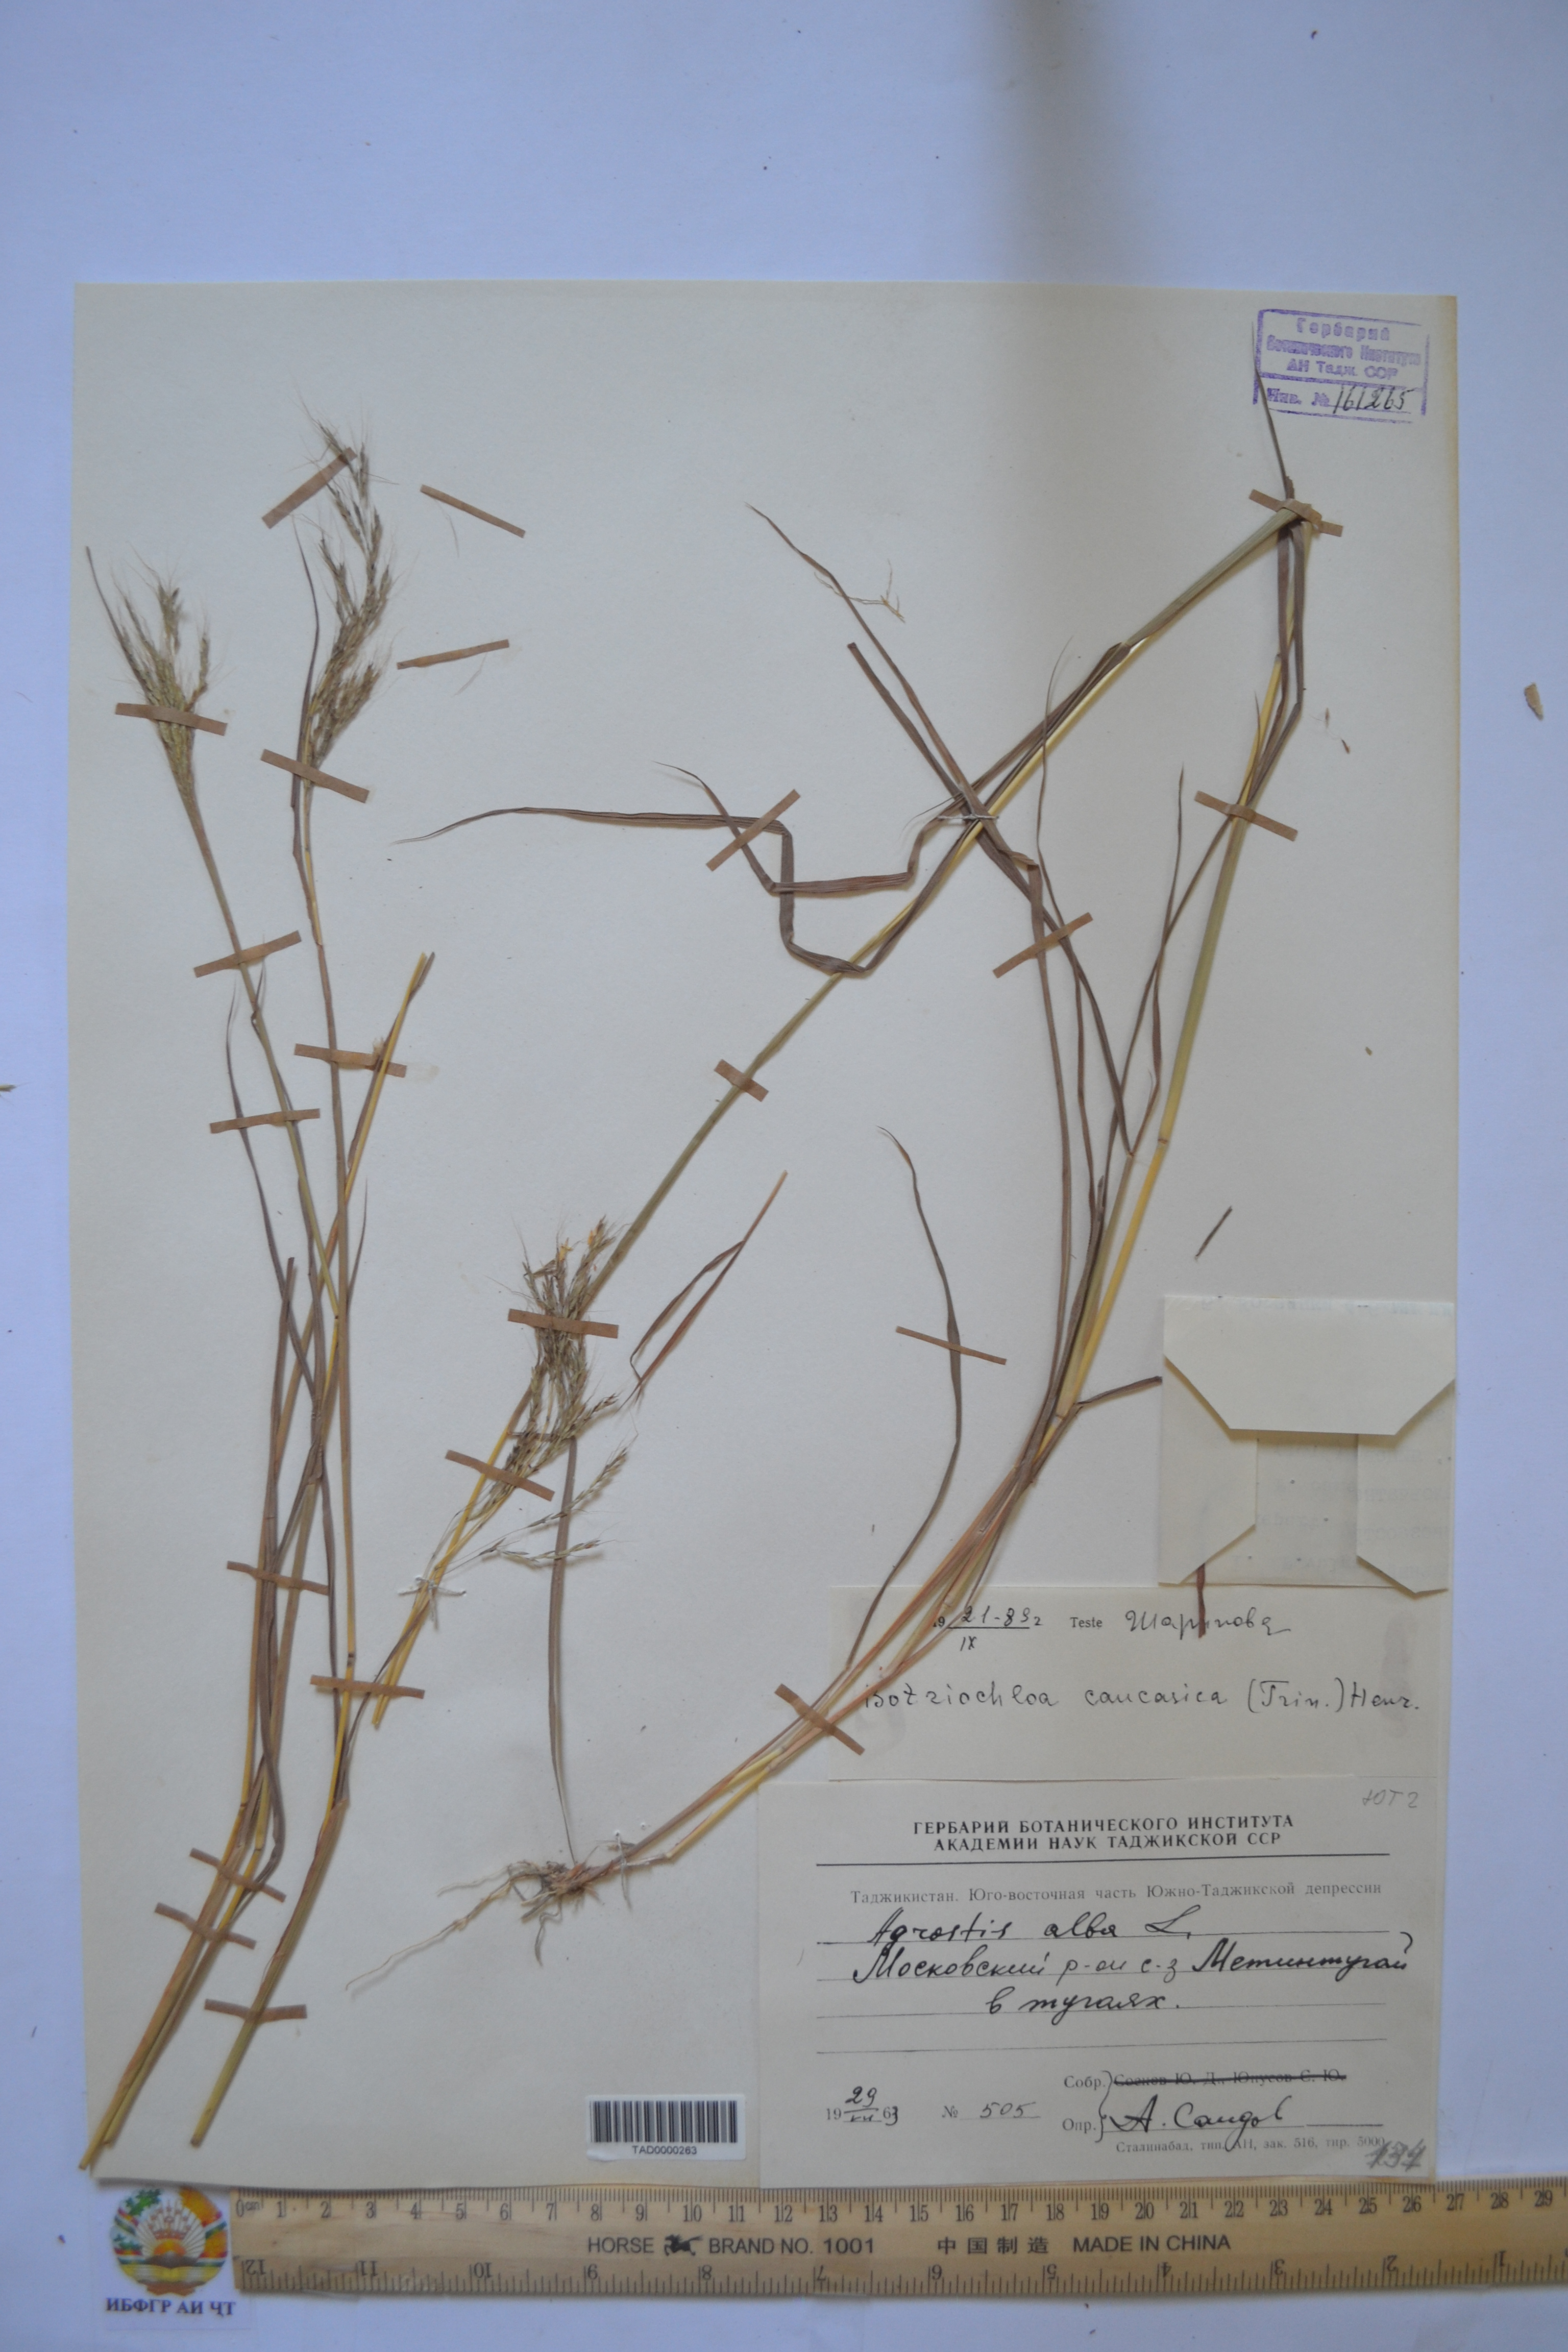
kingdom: Plantae
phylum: Tracheophyta
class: Liliopsida
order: Poales
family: Poaceae
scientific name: Poaceae
